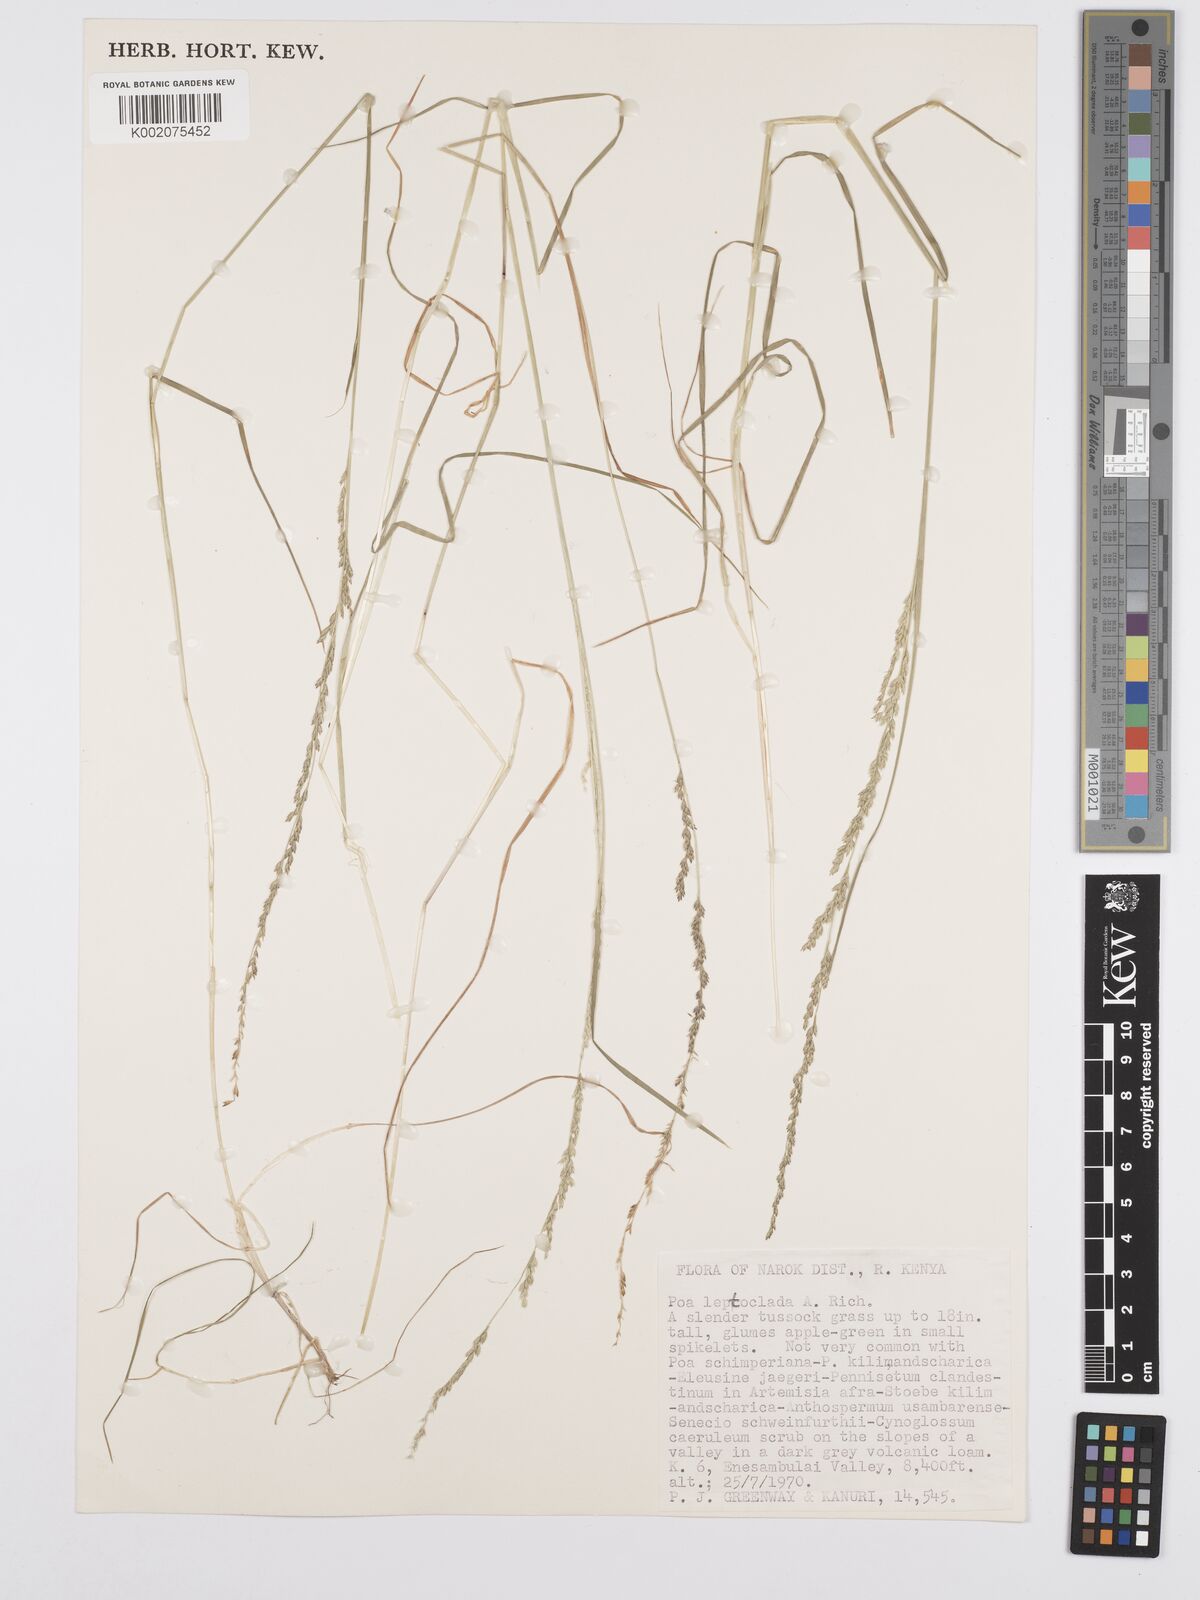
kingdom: Plantae
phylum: Tracheophyta
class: Liliopsida
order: Poales
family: Poaceae
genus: Poa
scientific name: Poa leptoclada
